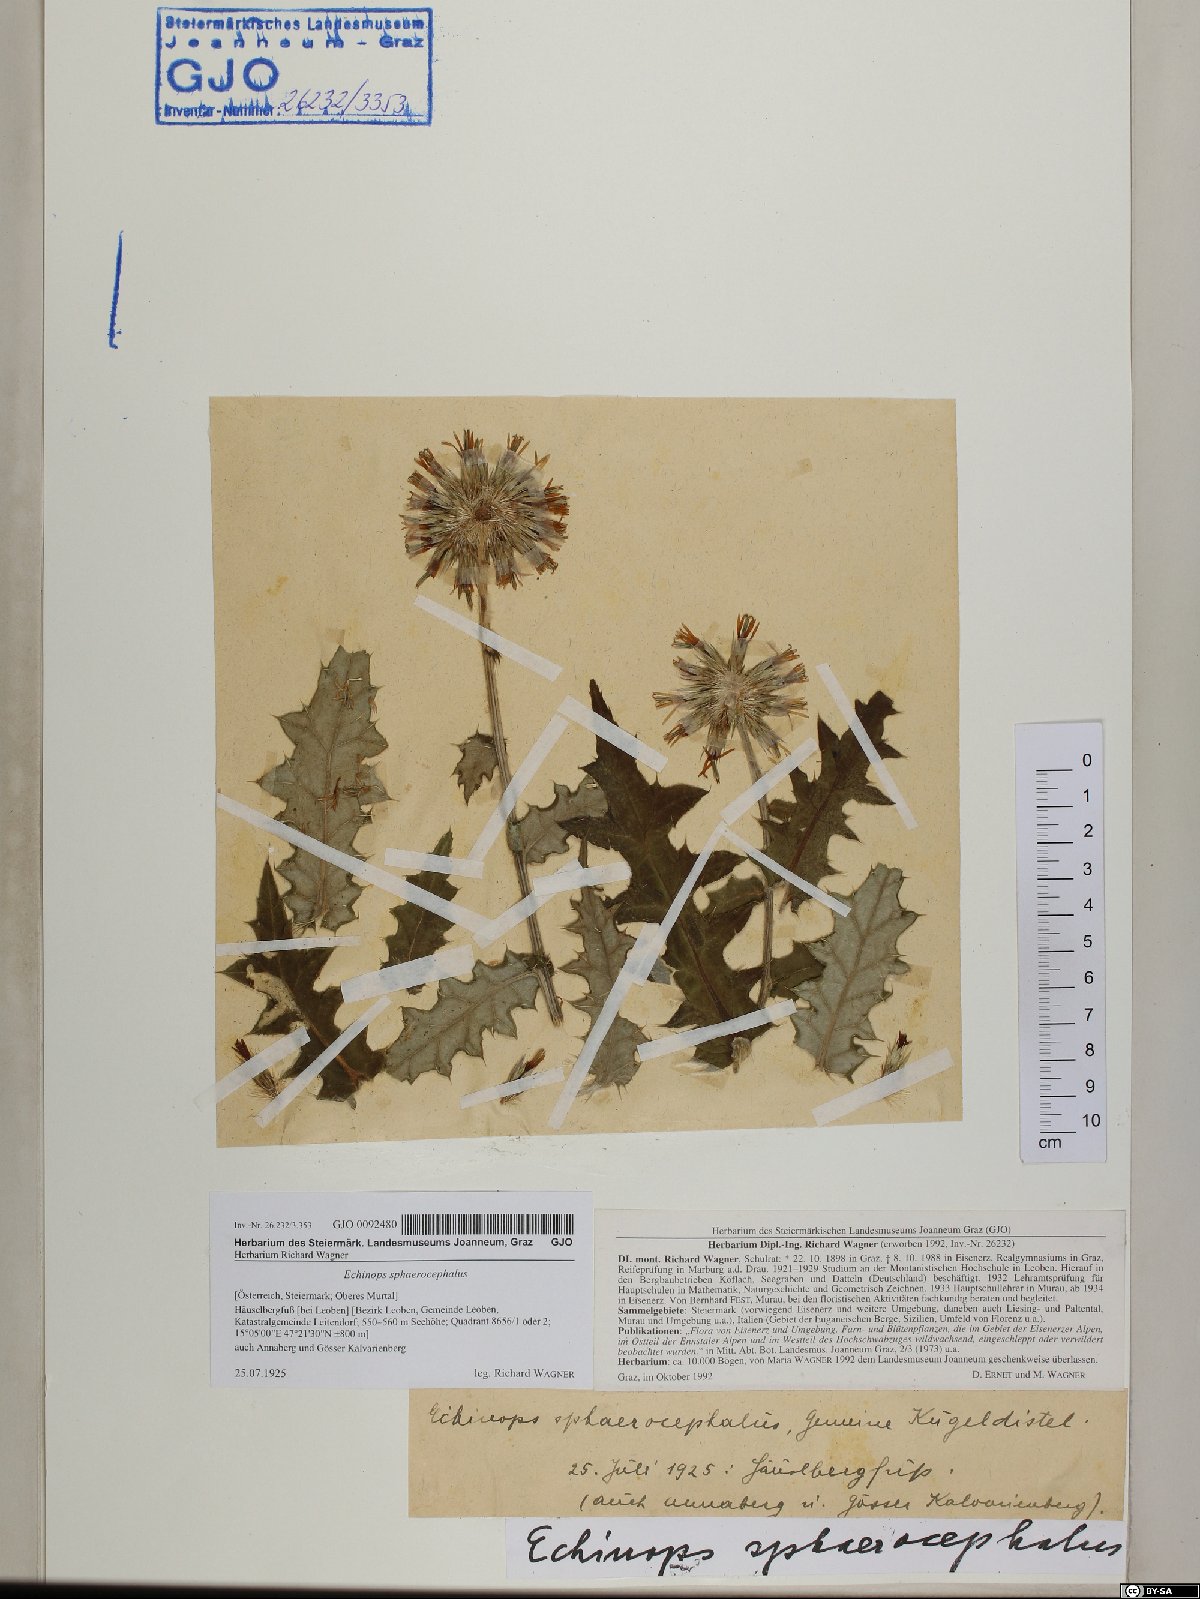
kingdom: Plantae
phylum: Tracheophyta
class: Magnoliopsida
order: Asterales
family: Asteraceae
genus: Echinops
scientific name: Echinops sphaerocephalus
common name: Glandular globe-thistle
